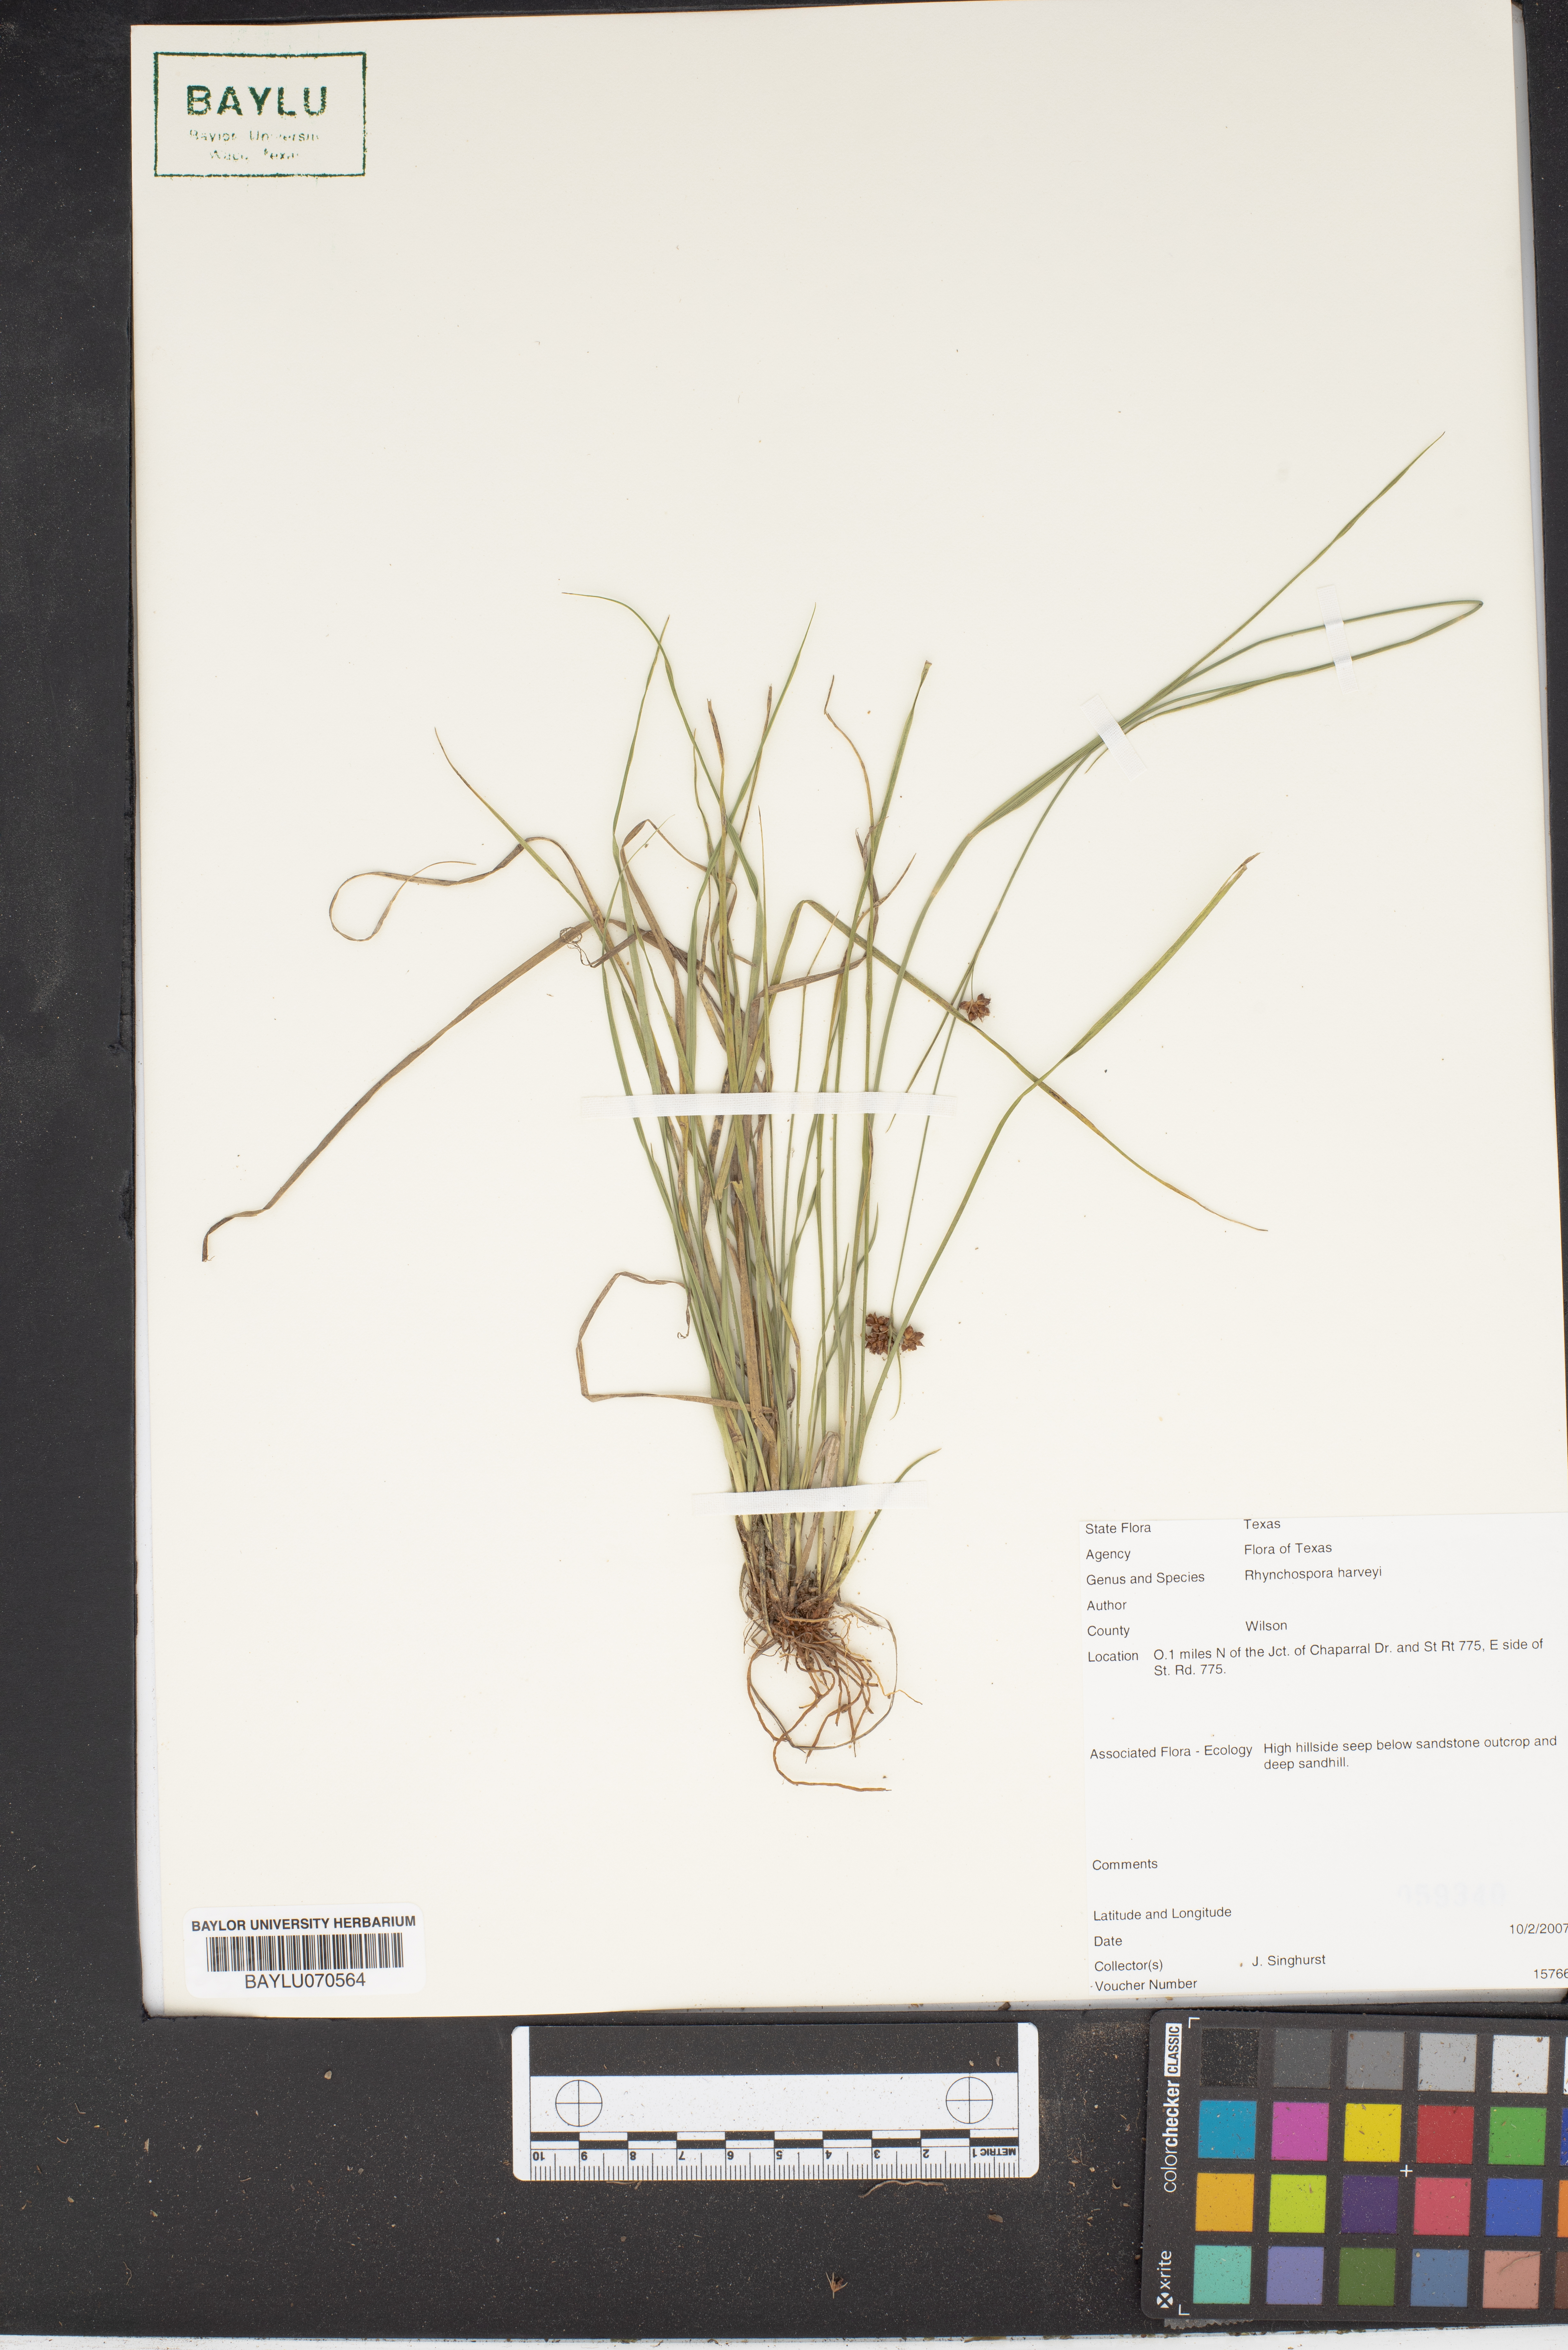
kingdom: Plantae
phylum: Tracheophyta
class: Liliopsida
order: Poales
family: Cyperaceae
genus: Rhynchospora
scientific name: Rhynchospora harveyi
